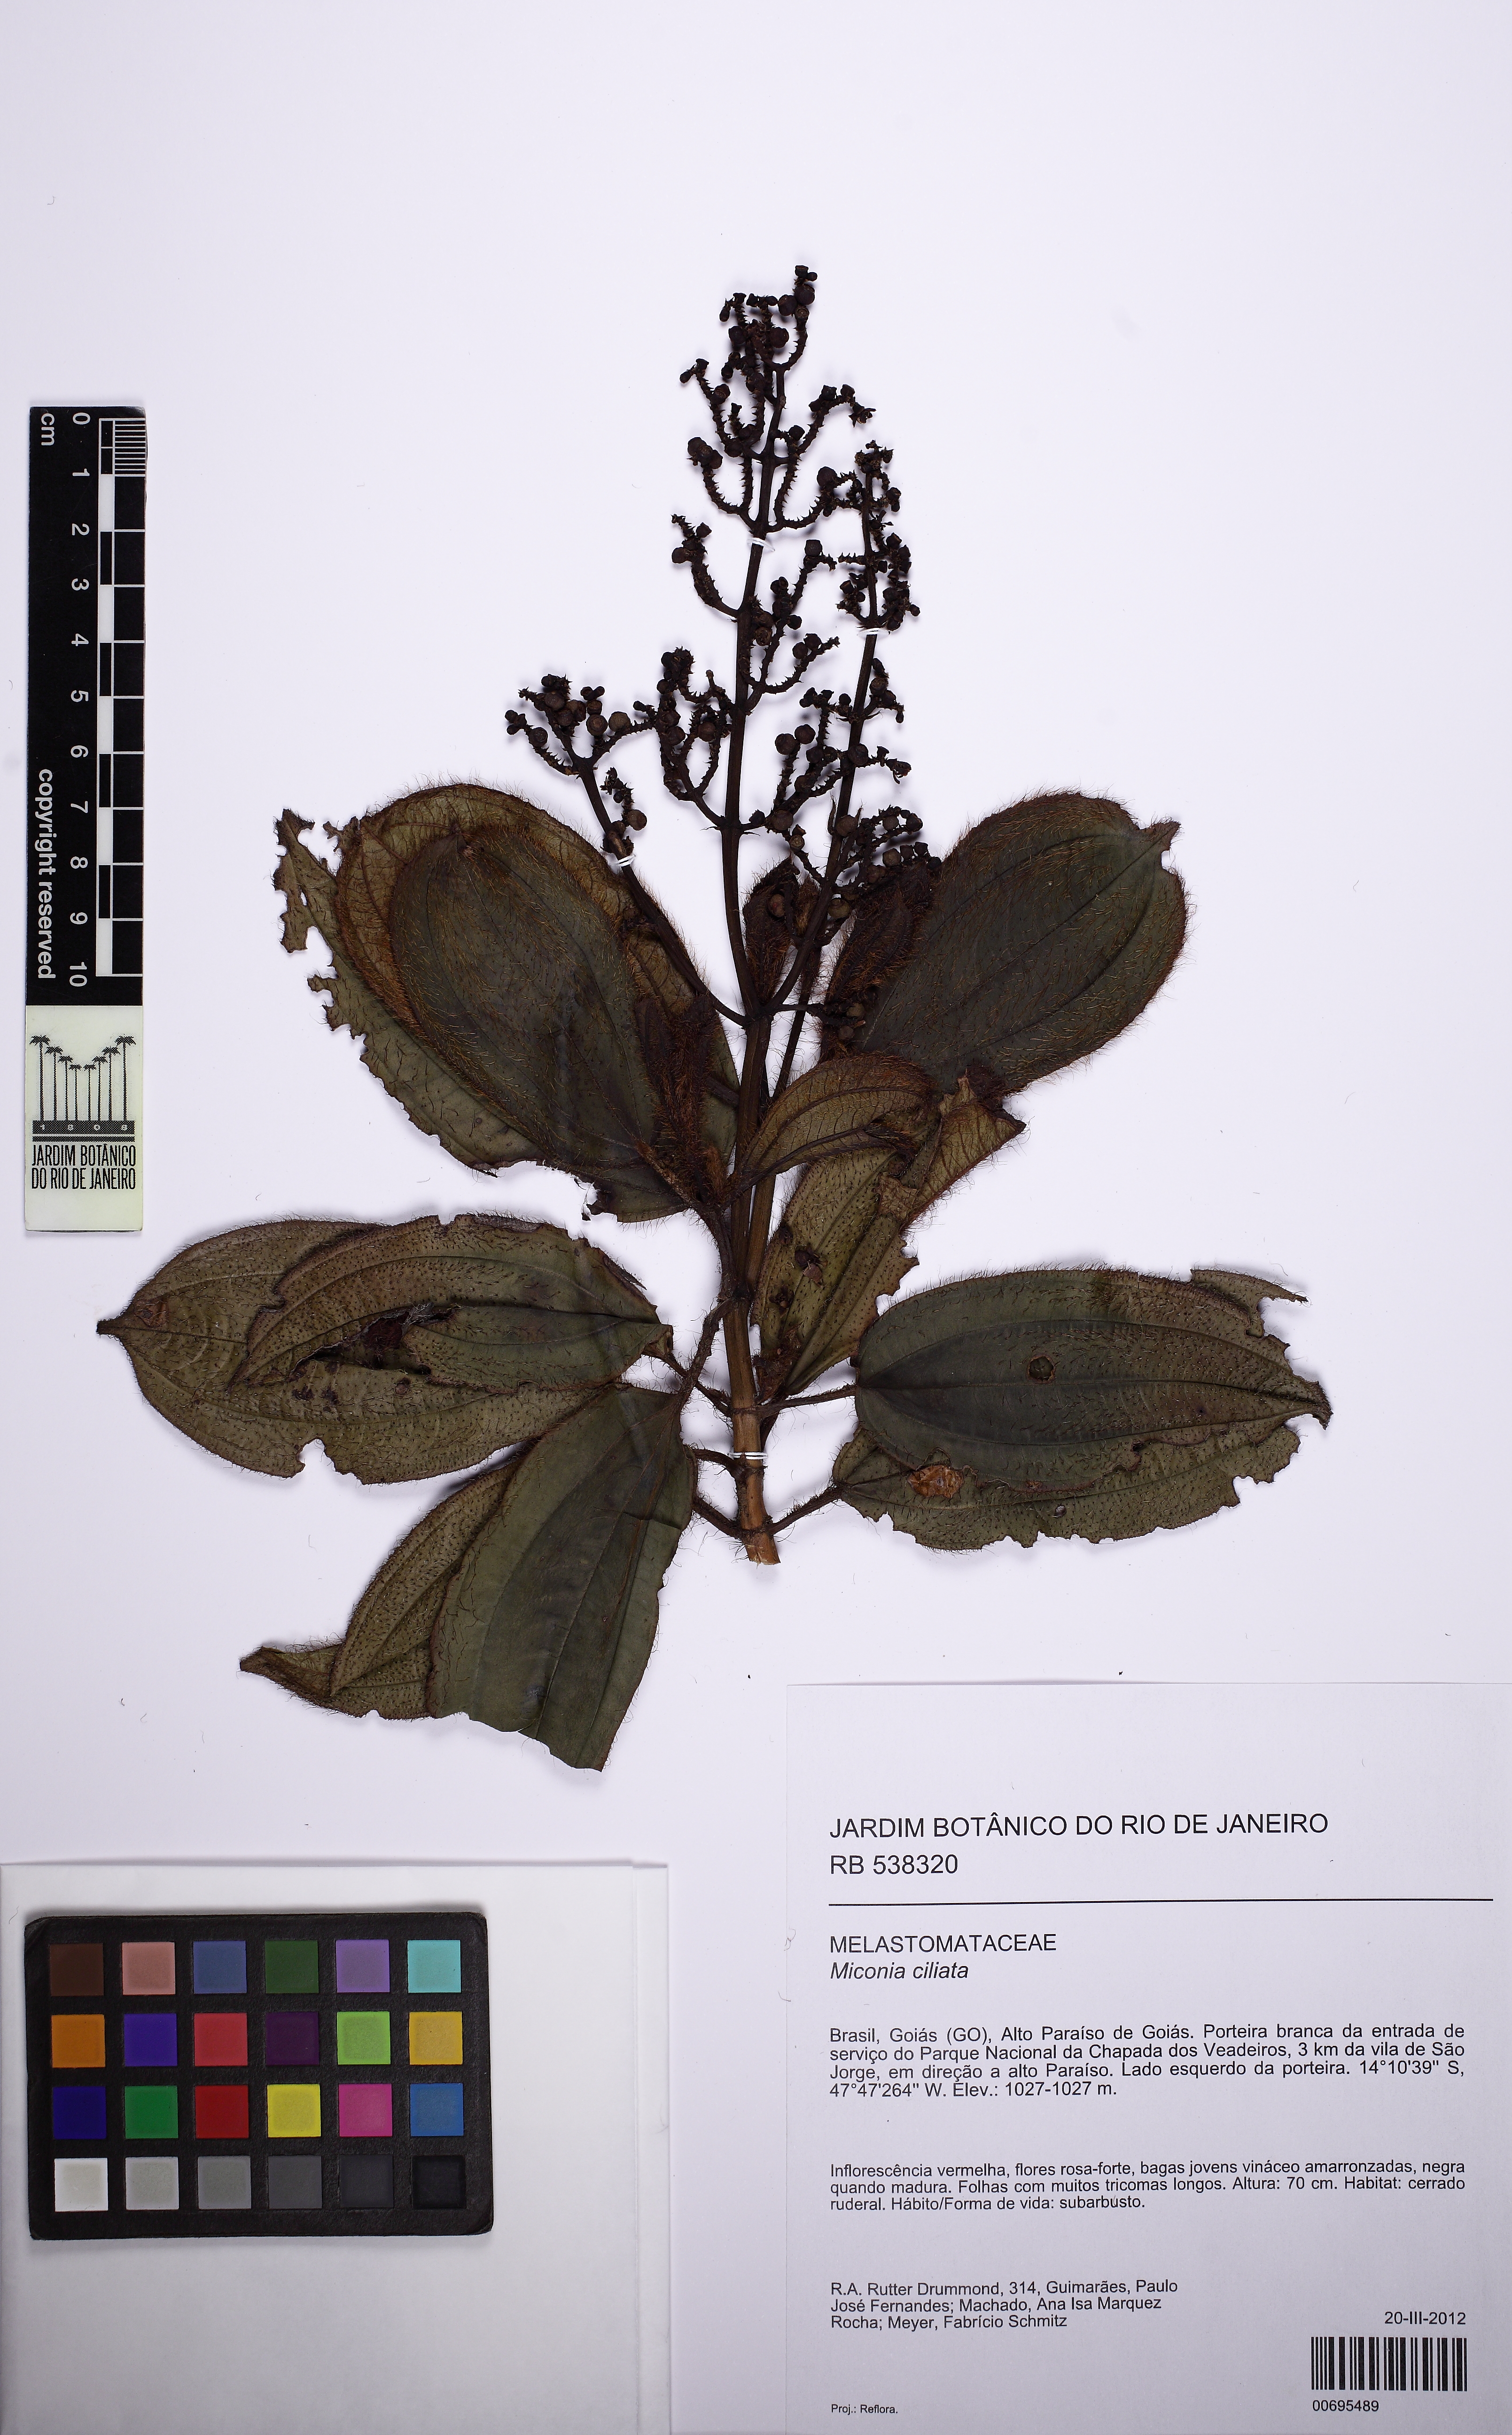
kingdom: Plantae
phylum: Tracheophyta
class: Magnoliopsida
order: Myrtales
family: Melastomataceae
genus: Miconia
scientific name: Miconia ciliata
